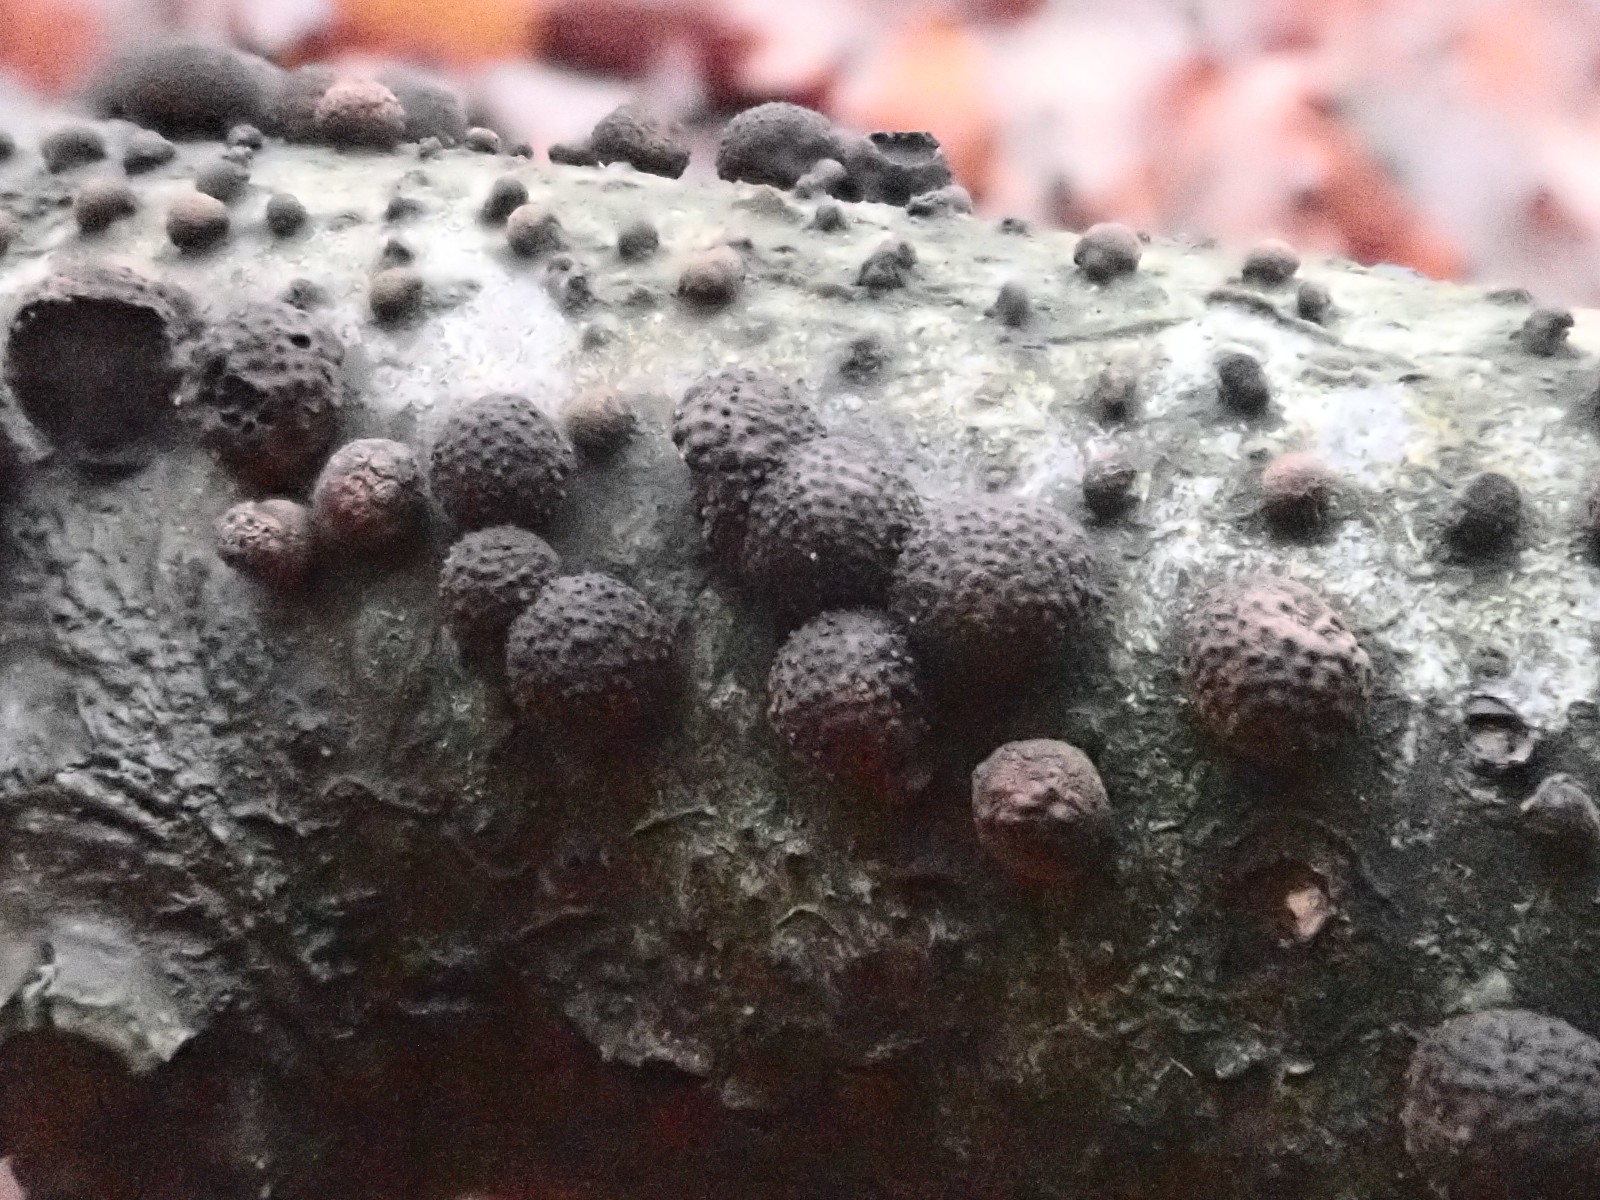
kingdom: Fungi
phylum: Ascomycota
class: Sordariomycetes
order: Xylariales
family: Hypoxylaceae
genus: Hypoxylon
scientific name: Hypoxylon fragiforme
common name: kuljordbær
